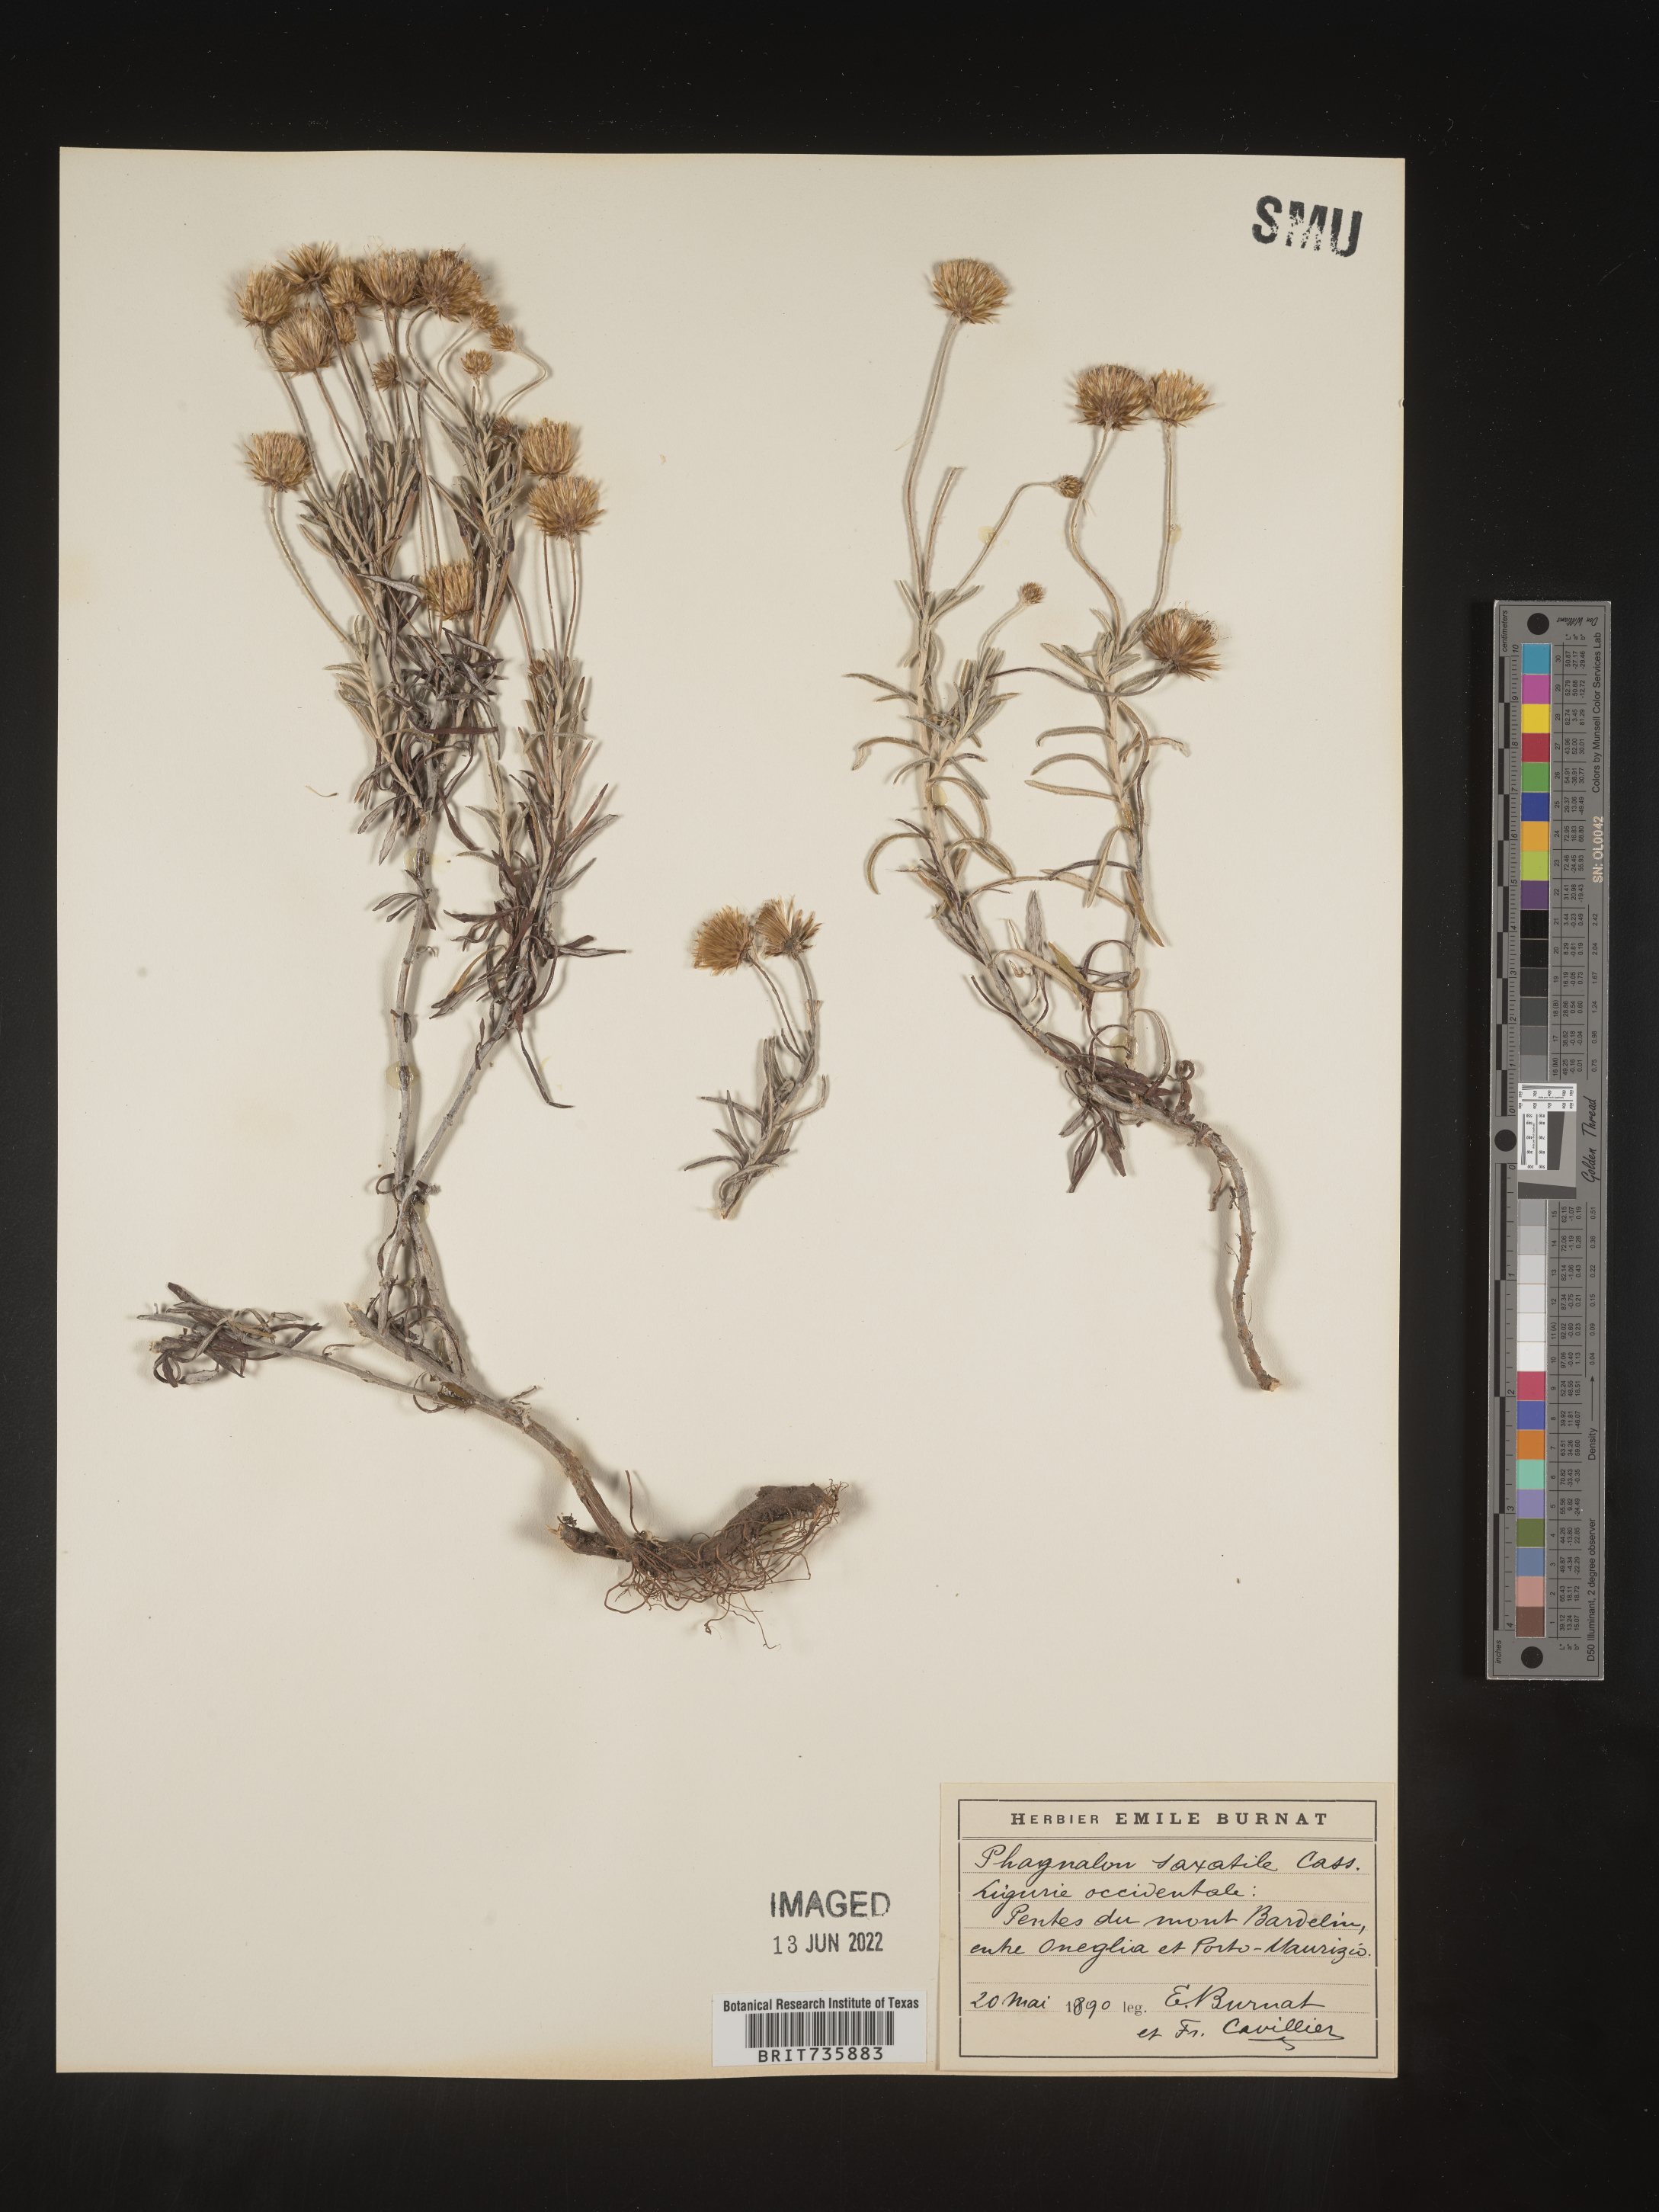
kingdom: Plantae
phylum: Tracheophyta
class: Magnoliopsida
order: Asterales
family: Asteraceae
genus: Phagnalon
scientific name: Phagnalon
